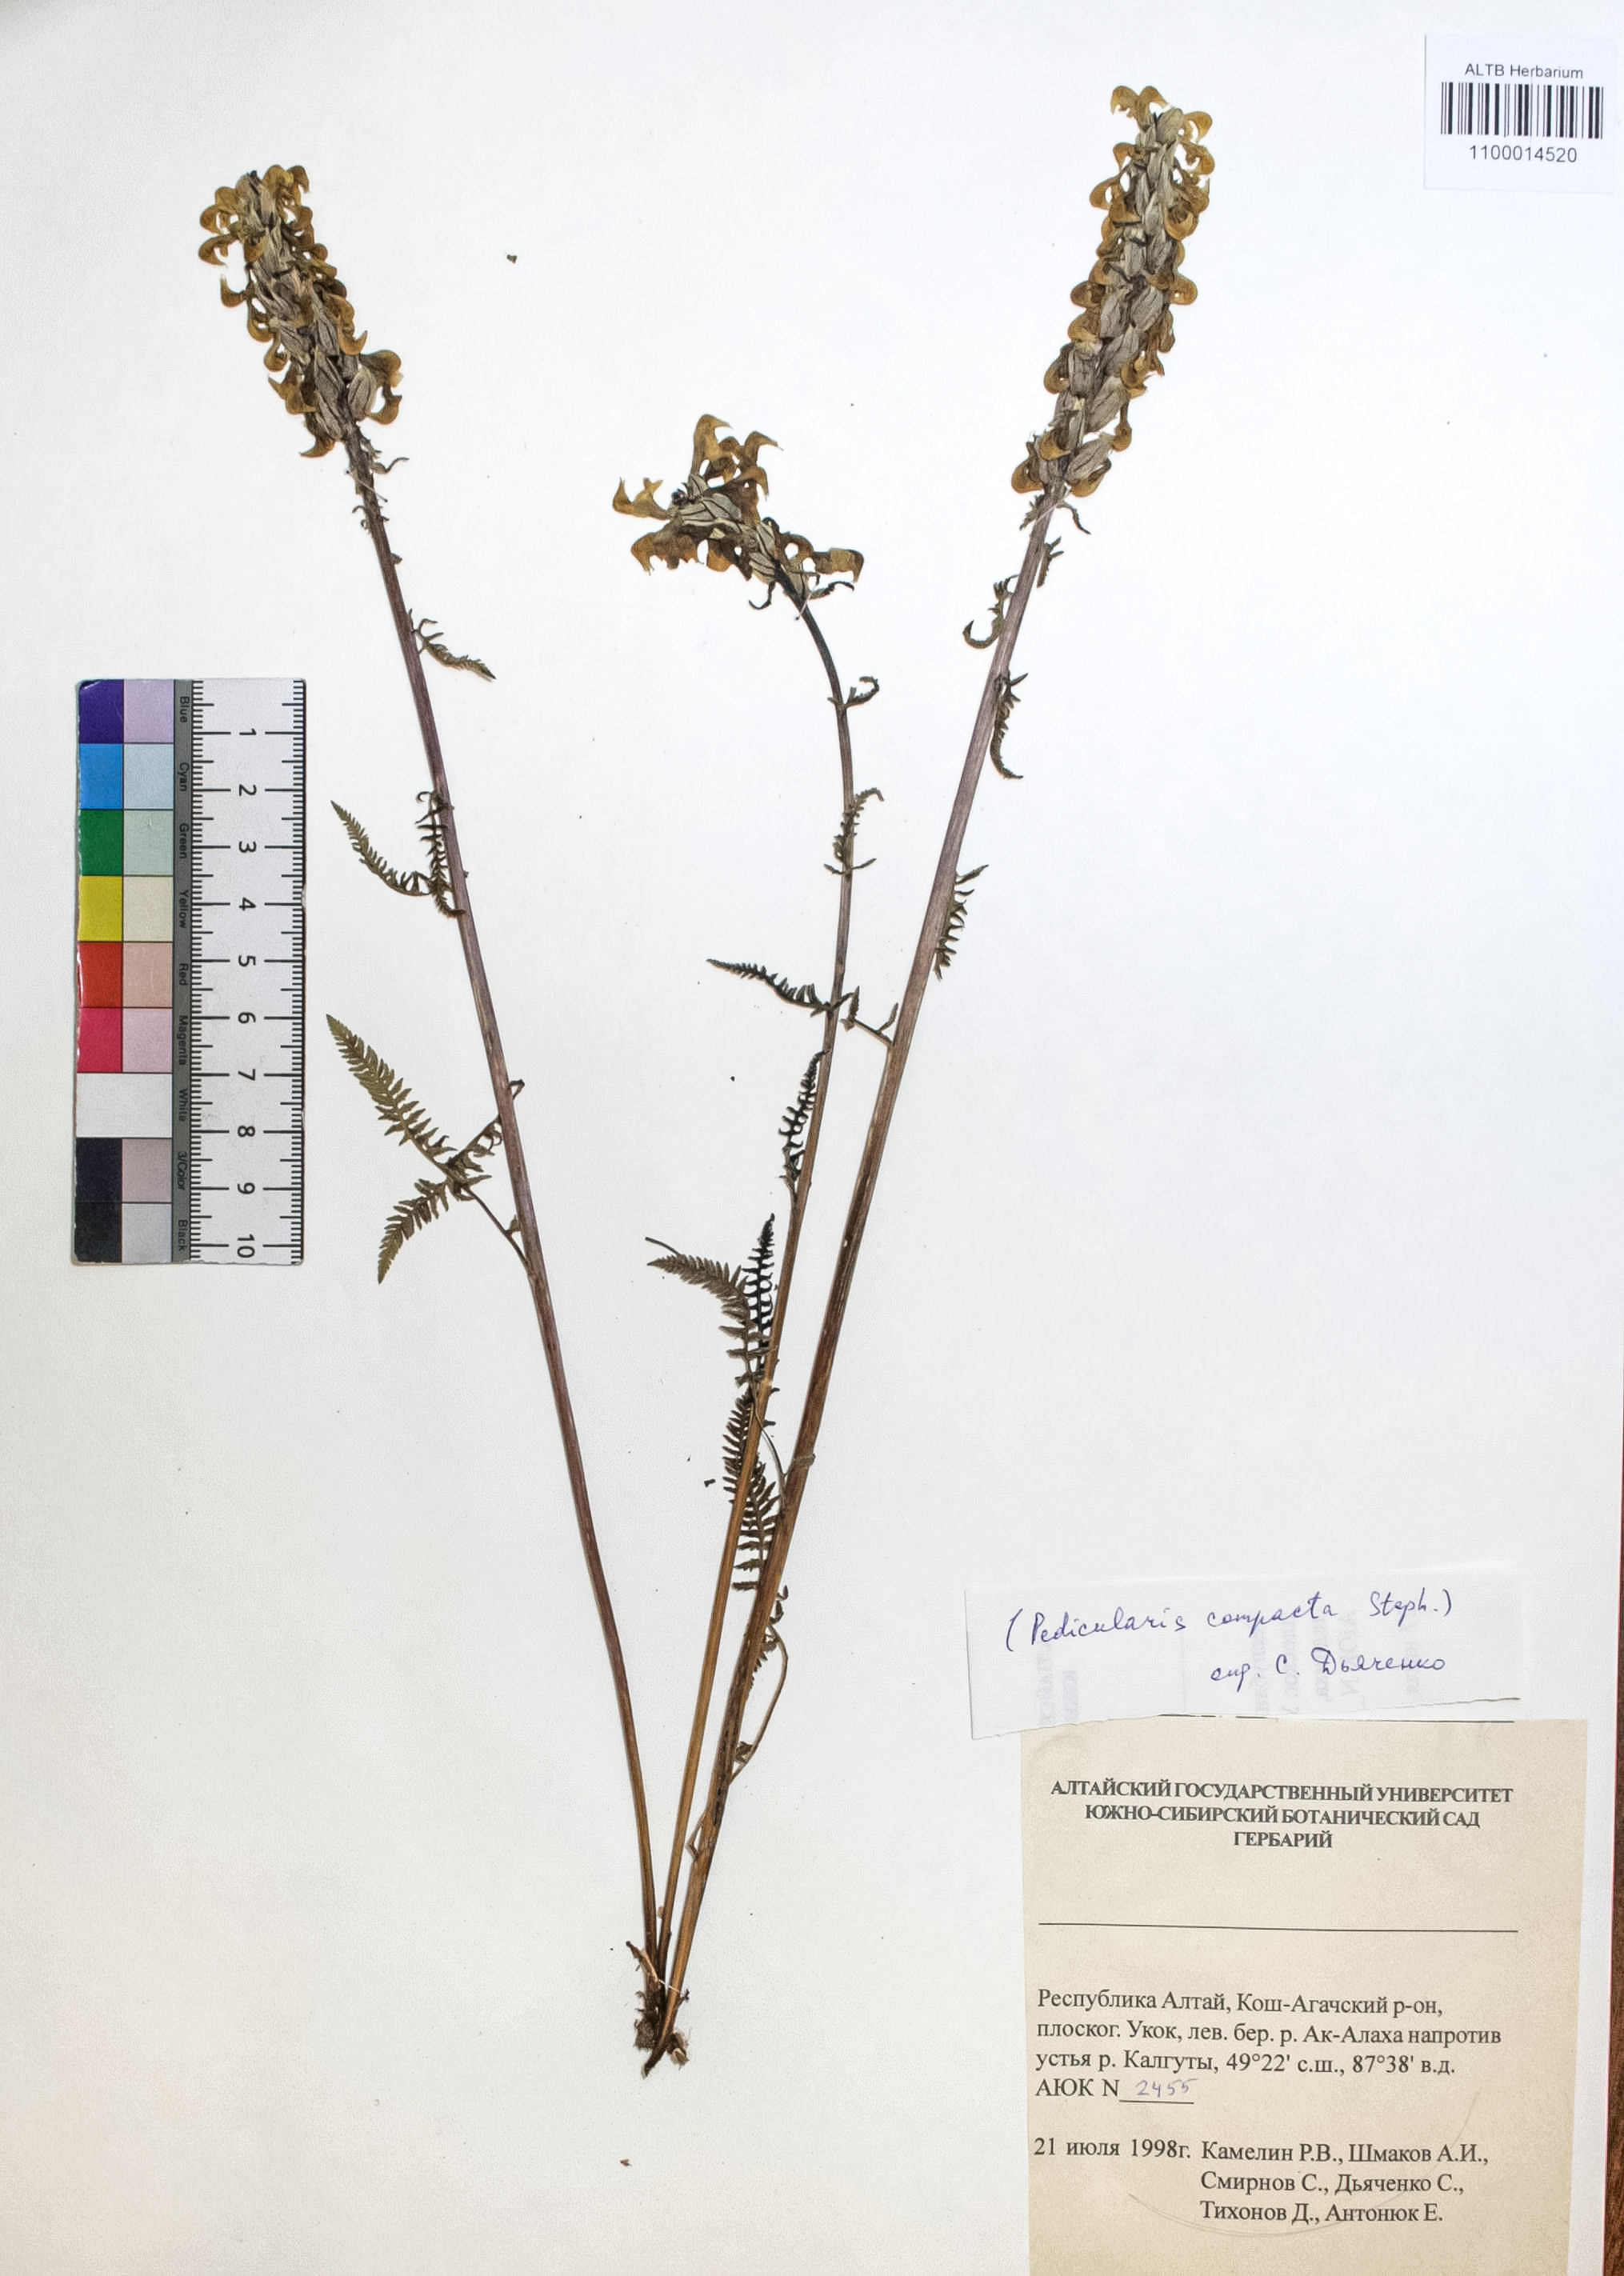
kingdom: Plantae
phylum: Tracheophyta
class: Magnoliopsida
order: Lamiales
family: Orobanchaceae
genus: Pedicularis
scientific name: Pedicularis compacta
